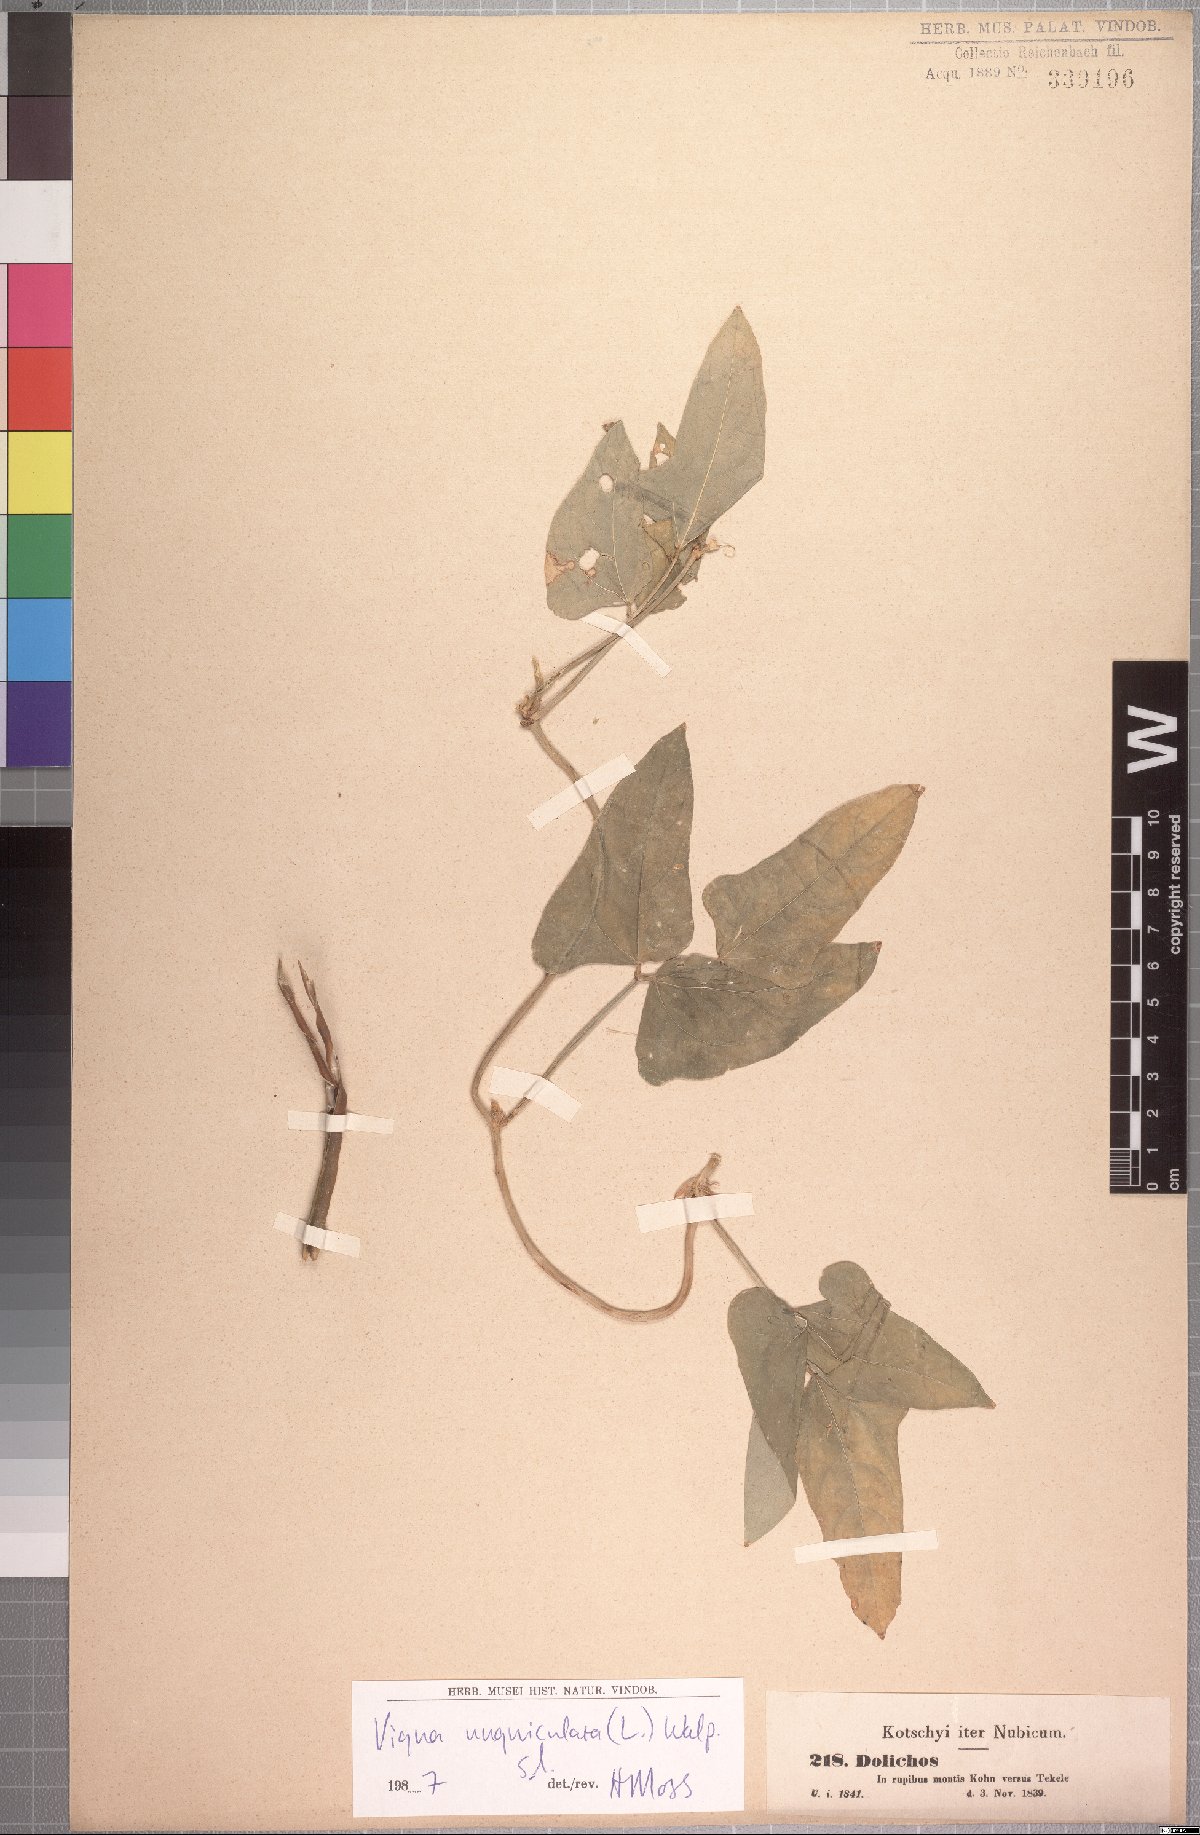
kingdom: Plantae
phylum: Tracheophyta
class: Magnoliopsida
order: Fabales
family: Fabaceae
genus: Vigna
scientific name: Vigna unguiculata
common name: Cowpea
